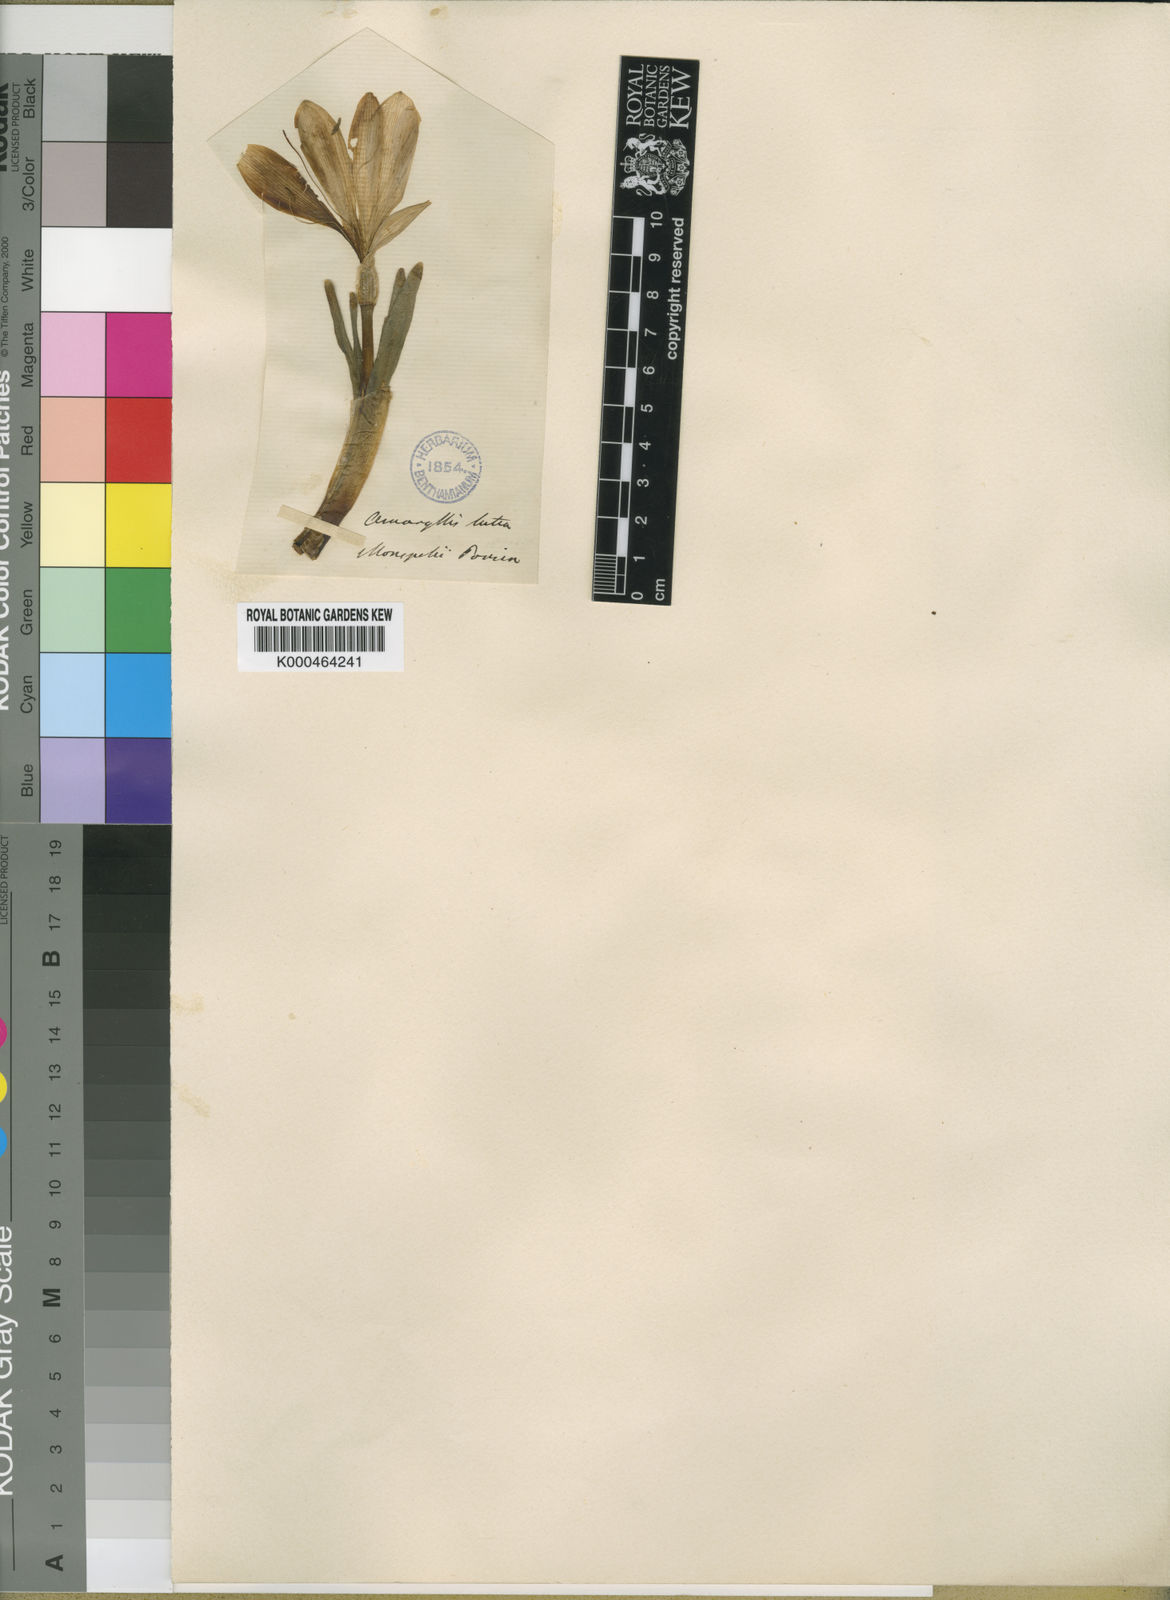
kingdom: Plantae
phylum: Tracheophyta
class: Liliopsida
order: Asparagales
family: Amaryllidaceae
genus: Sternbergia
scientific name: Sternbergia
